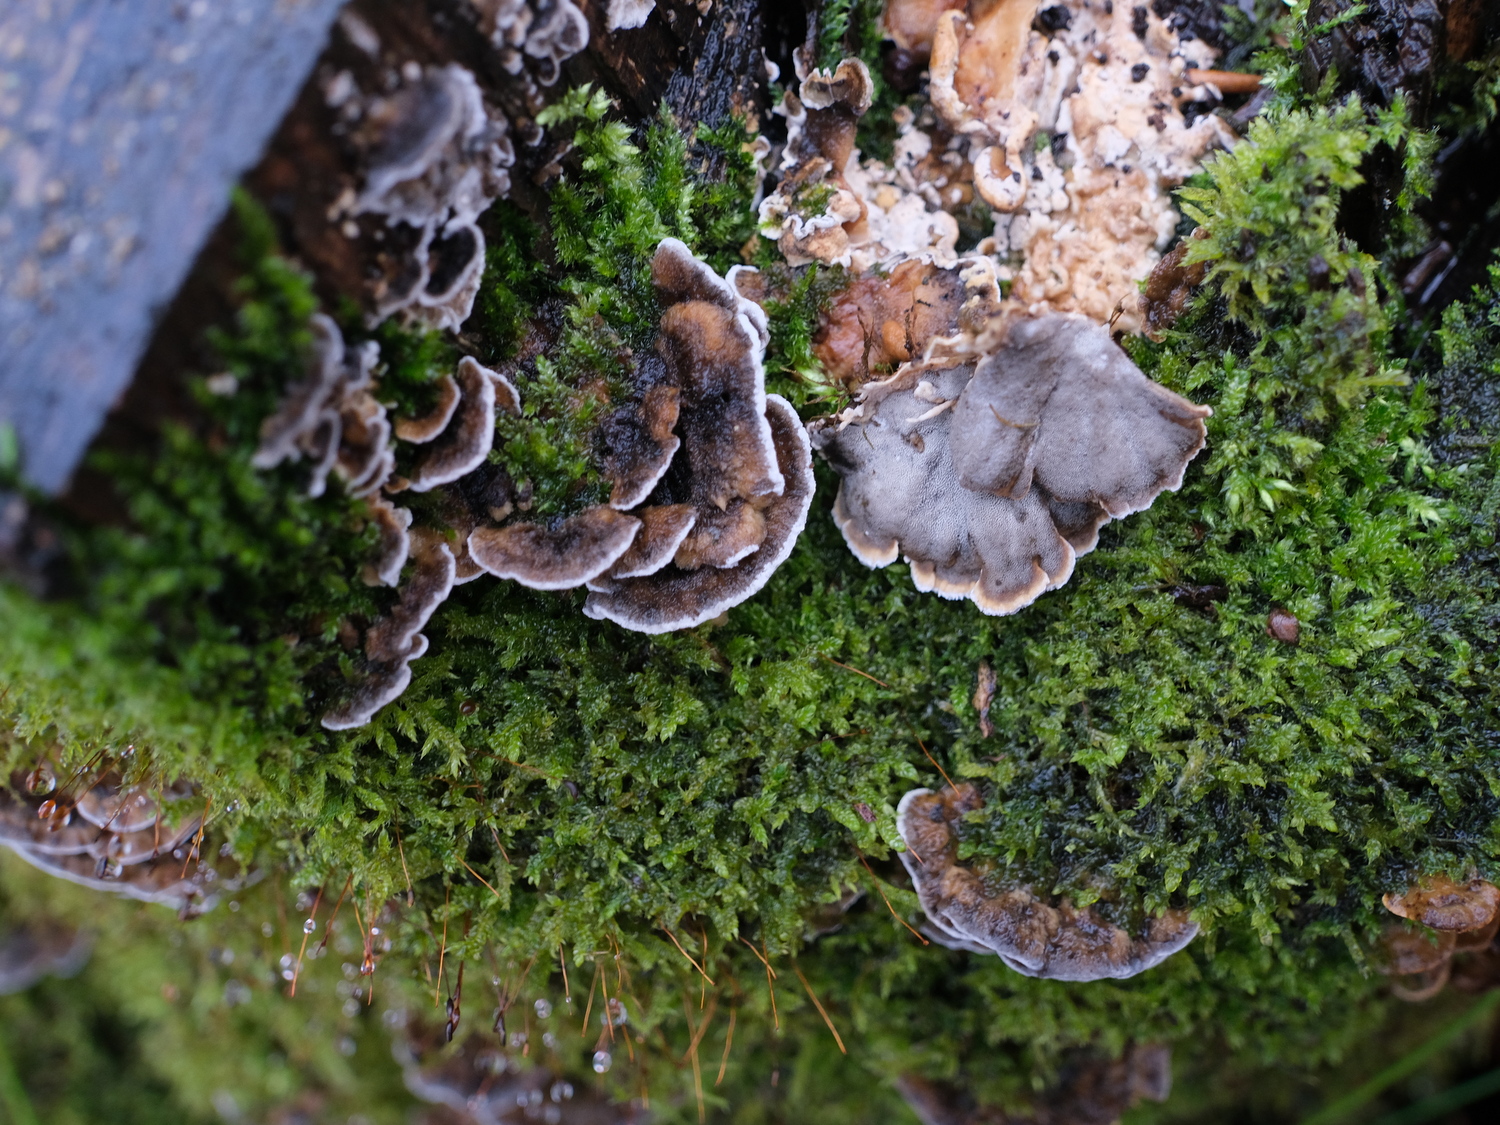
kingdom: Fungi
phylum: Basidiomycota
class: Agaricomycetes
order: Polyporales
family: Phanerochaetaceae
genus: Bjerkandera
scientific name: Bjerkandera adusta
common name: sveden sodporesvamp
